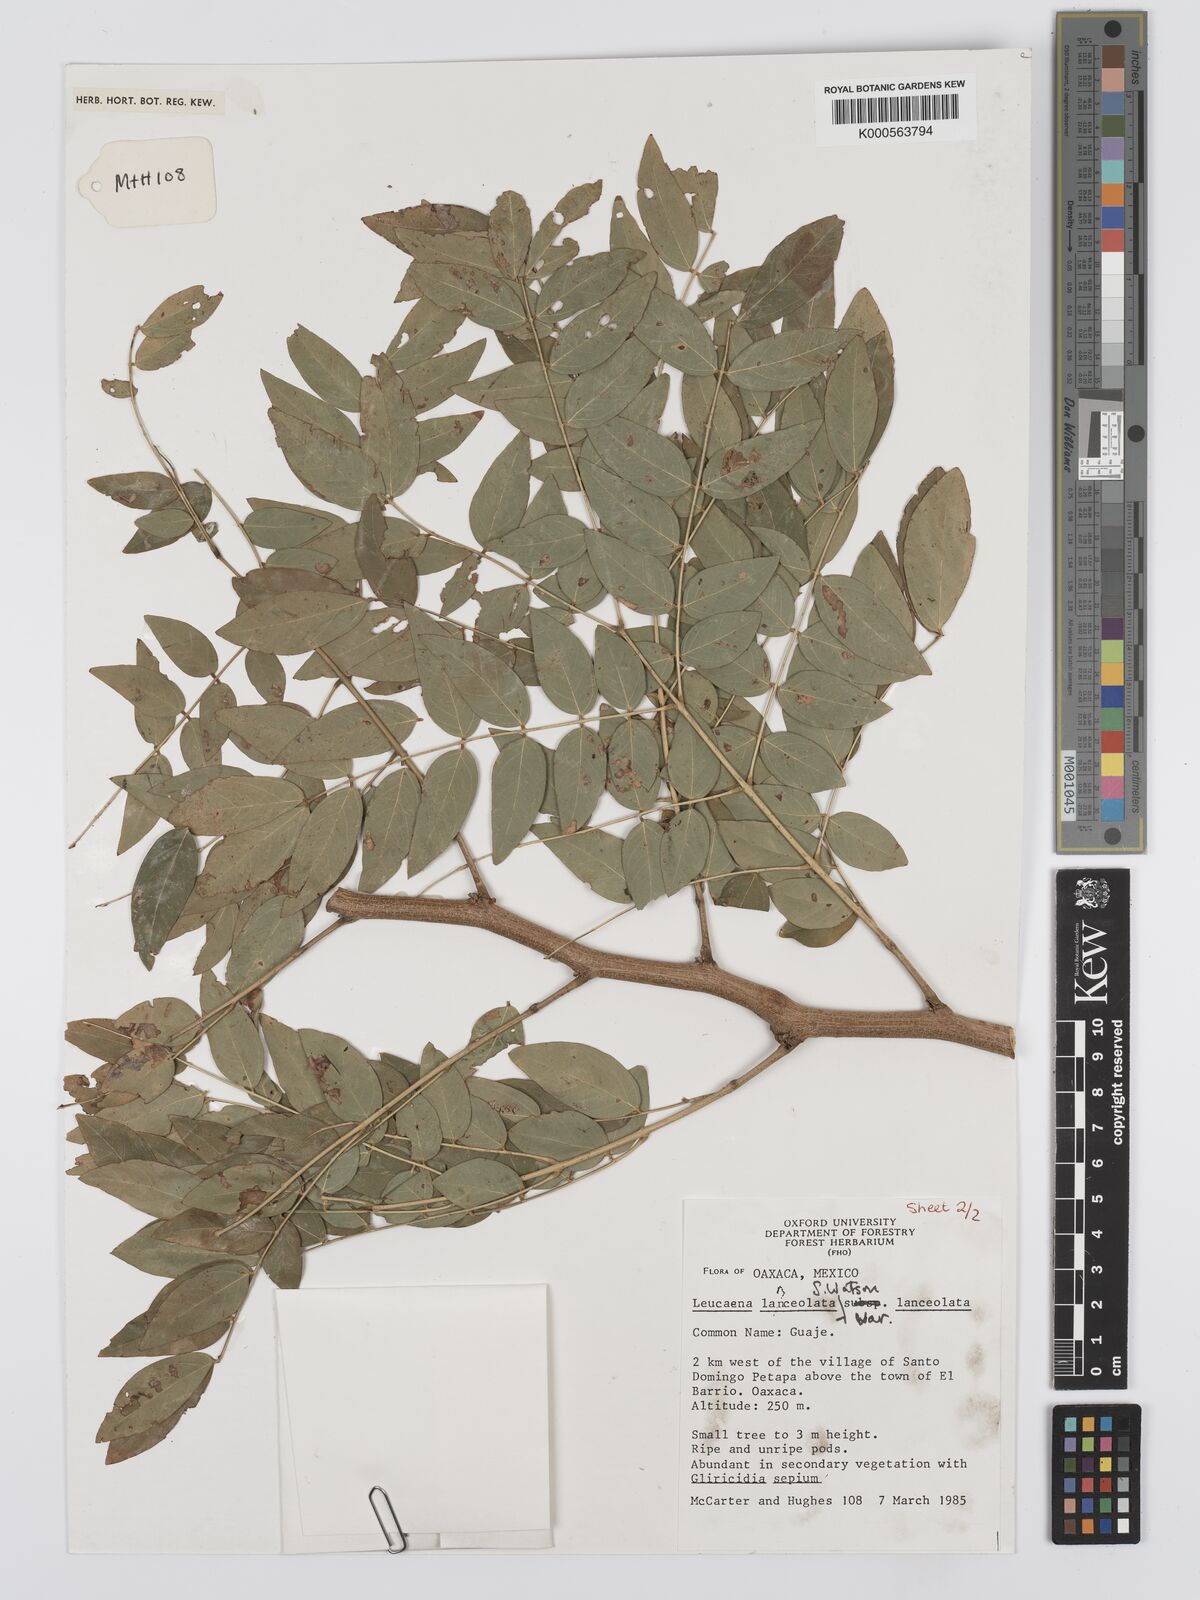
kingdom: Plantae
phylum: Tracheophyta
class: Magnoliopsida
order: Fabales
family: Fabaceae
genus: Leucaena
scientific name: Leucaena lanceolata
